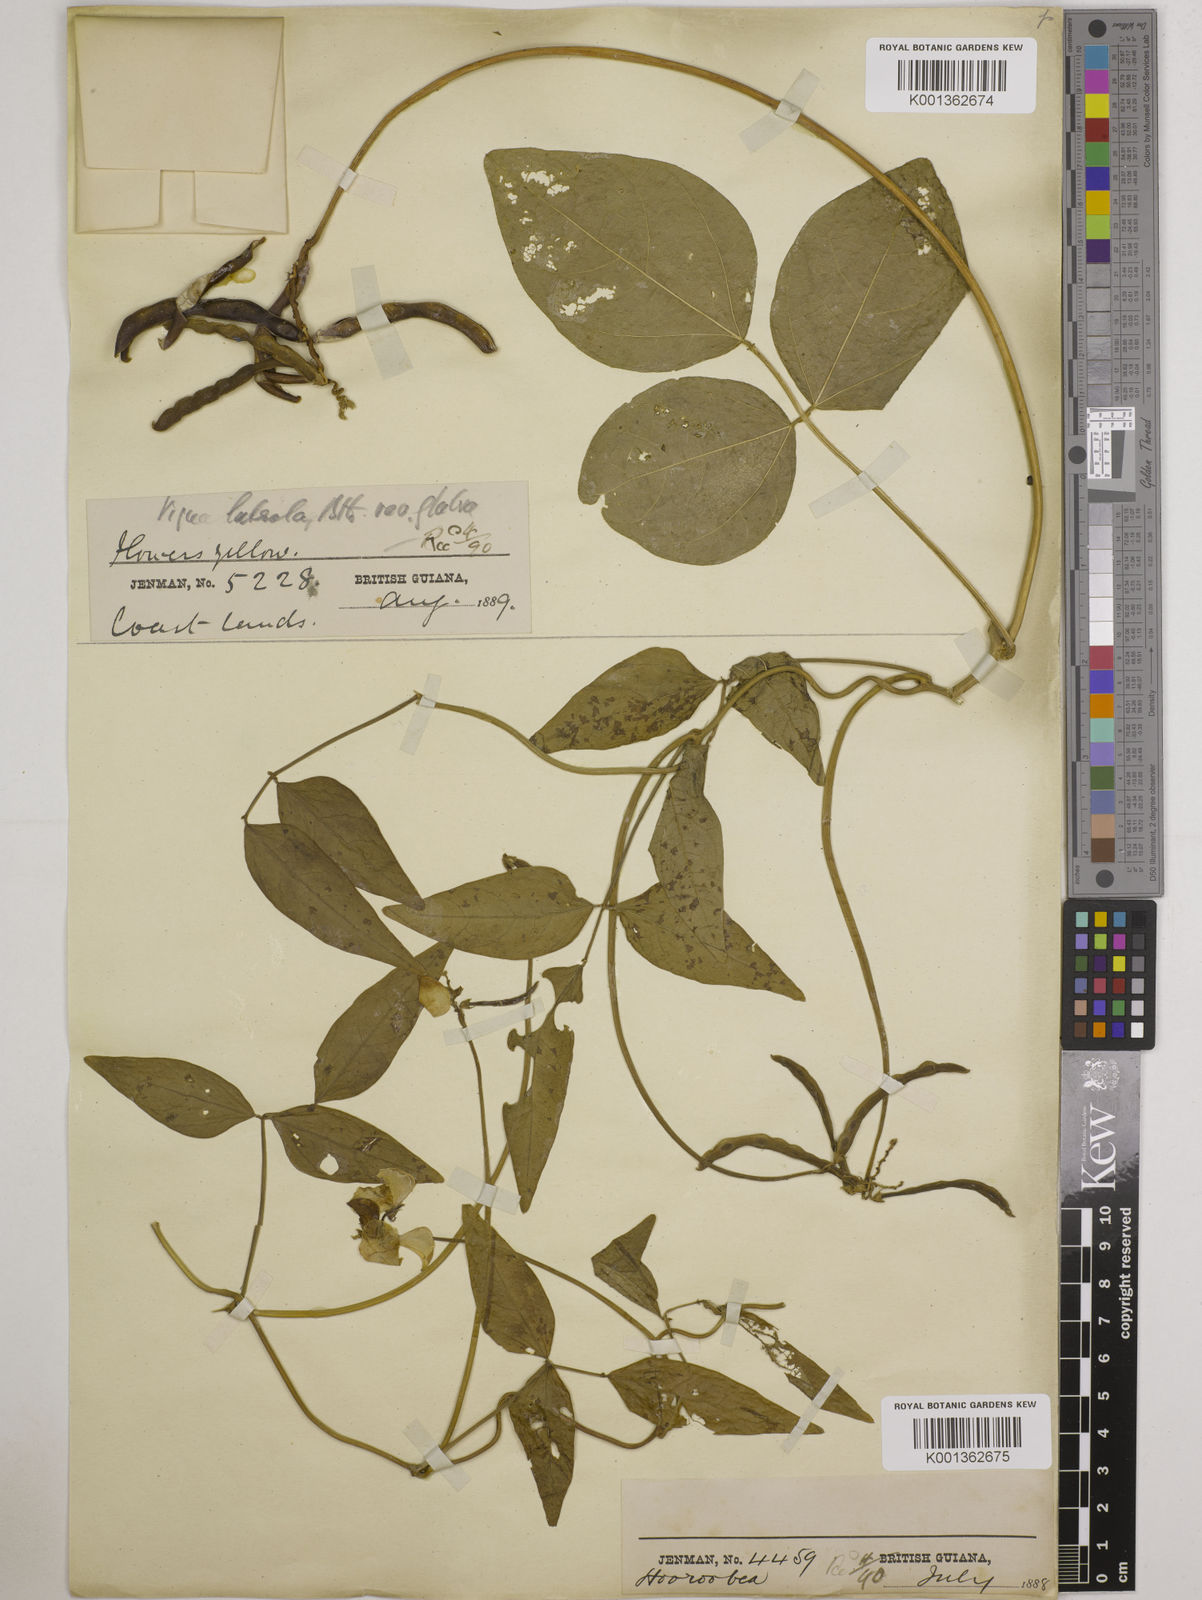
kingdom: Plantae
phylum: Tracheophyta
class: Magnoliopsida
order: Fabales
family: Fabaceae
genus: Vigna
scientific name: Vigna luteola
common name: Hairypod cowpea
